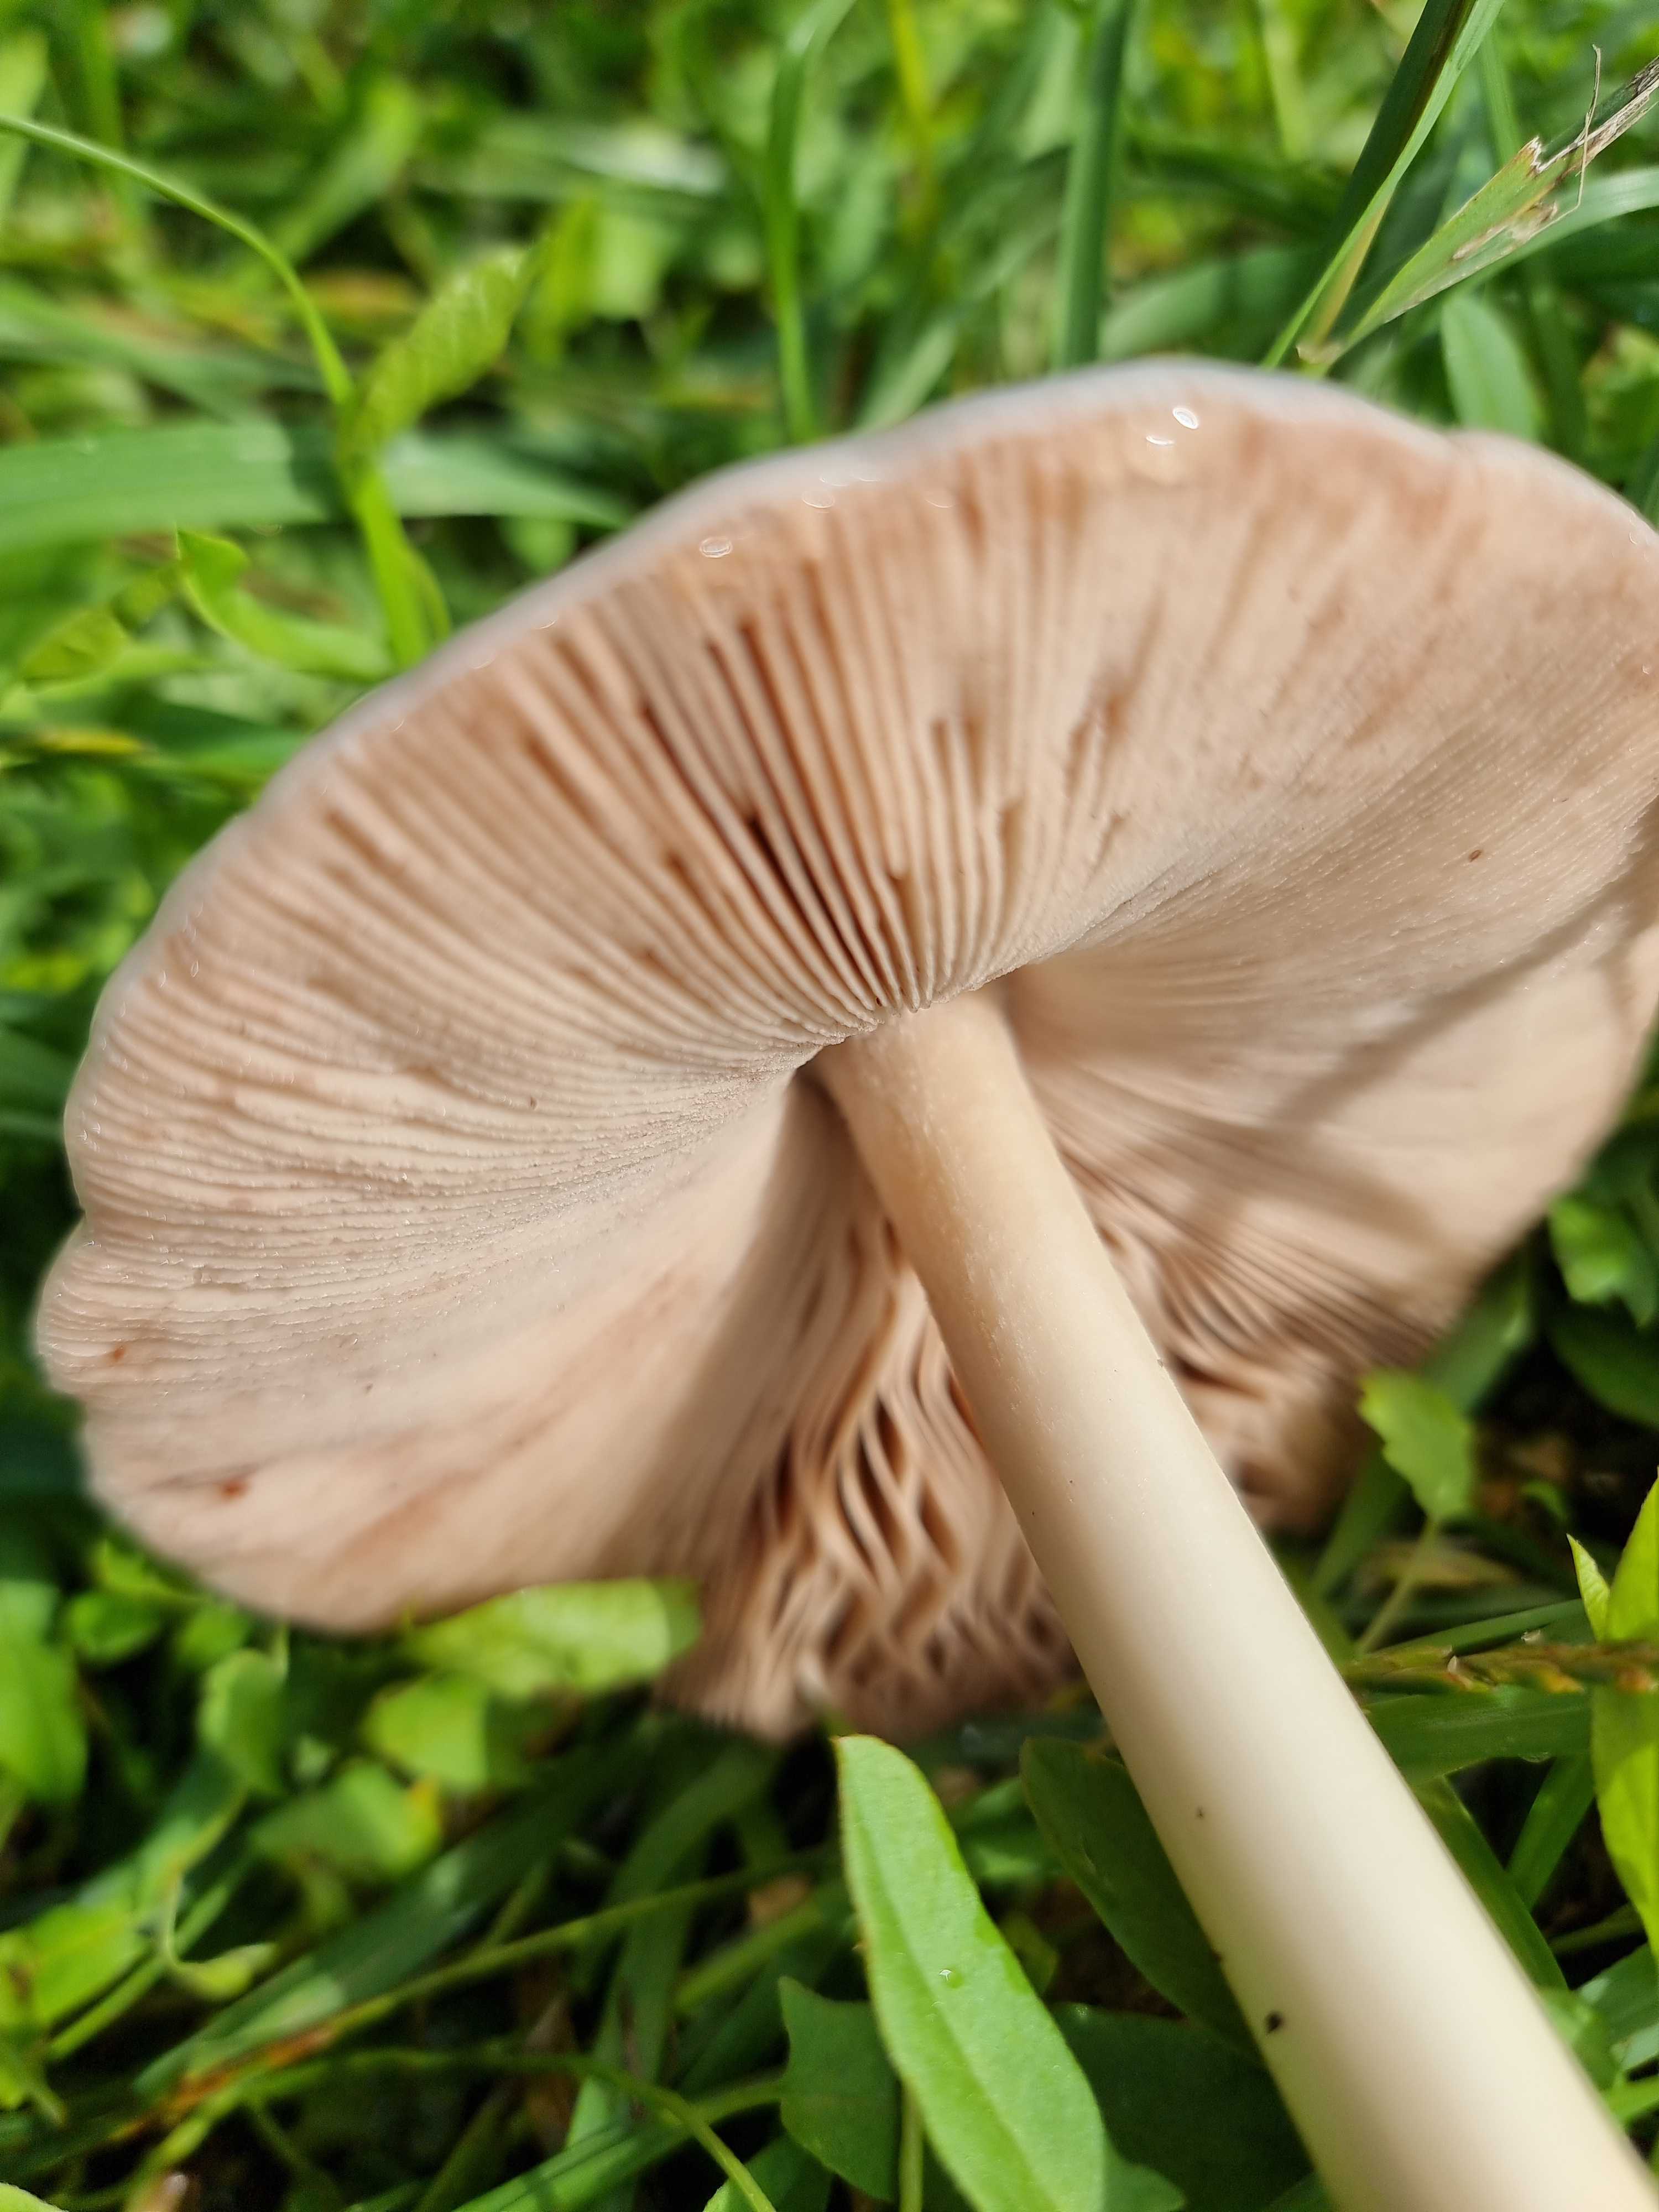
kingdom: Fungi
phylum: Basidiomycota
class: Agaricomycetes
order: Agaricales
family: Pluteaceae
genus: Volvopluteus
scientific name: Volvopluteus gloiocephalus
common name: høj posesvamp
